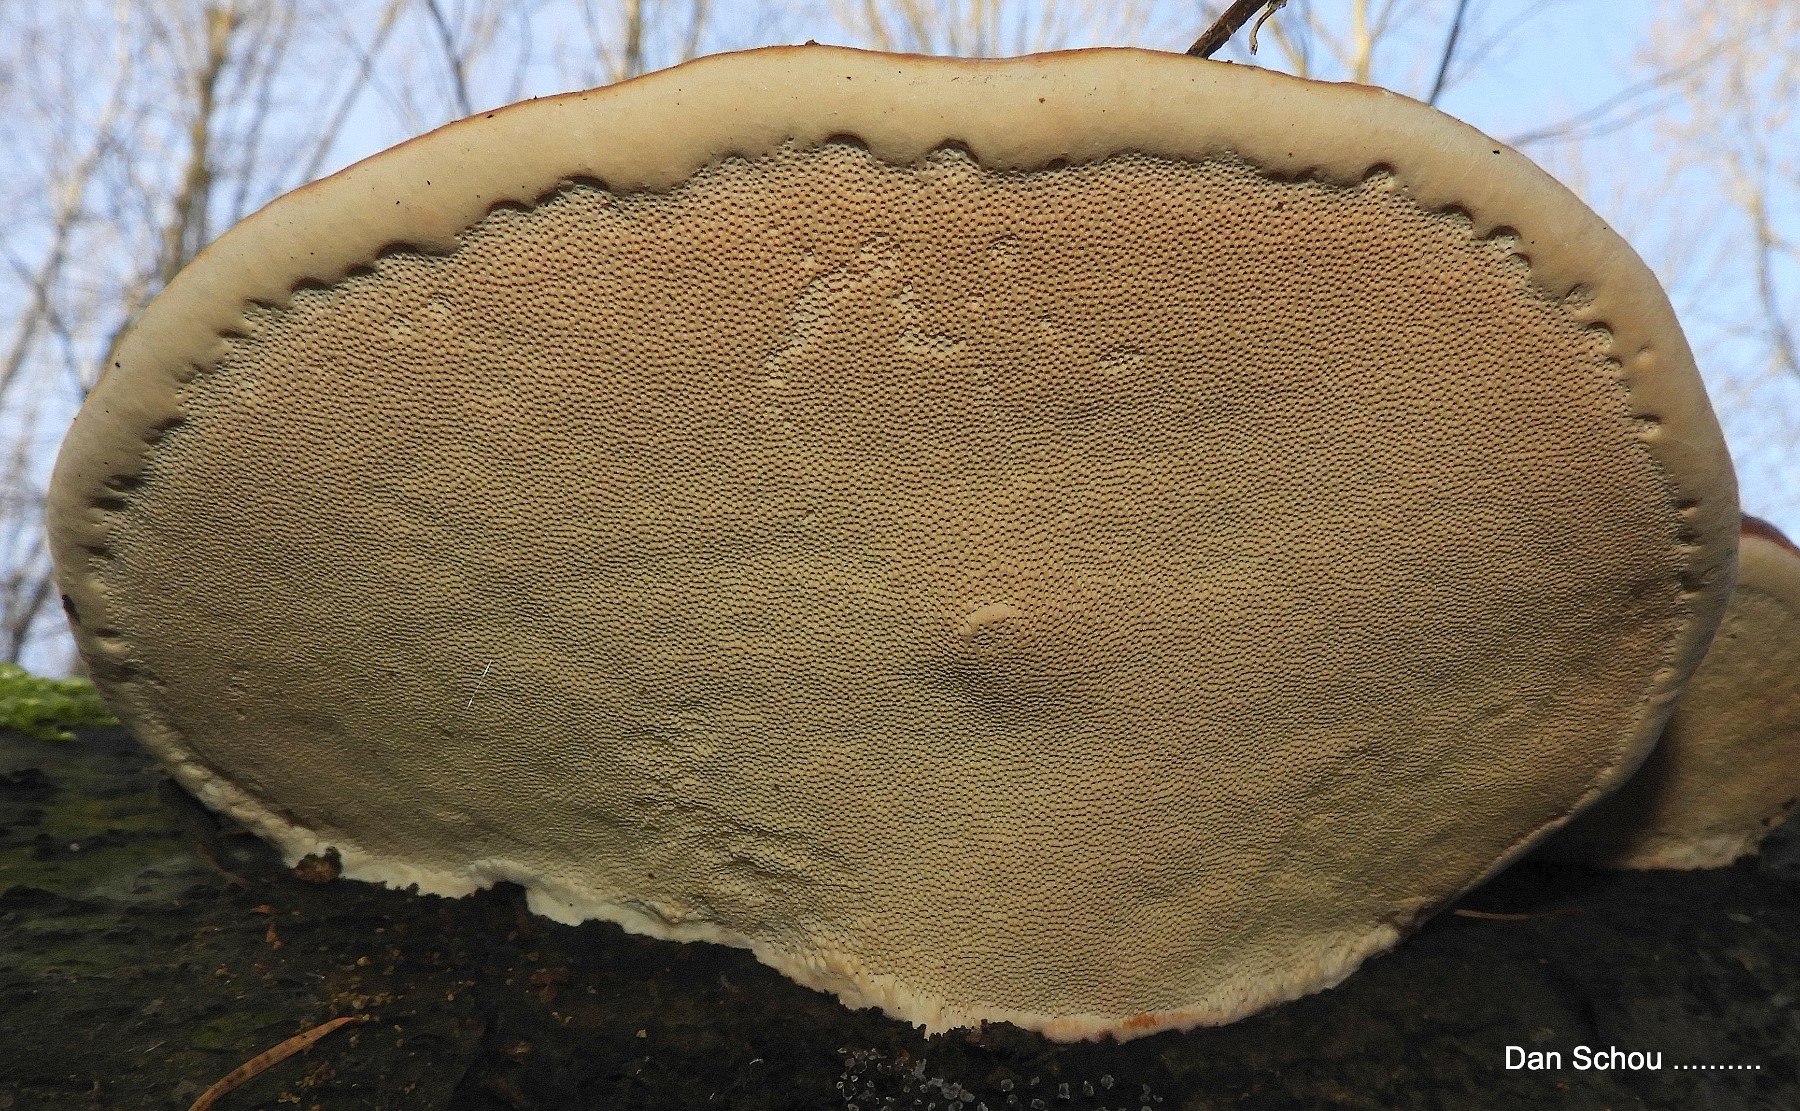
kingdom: Fungi
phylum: Basidiomycota
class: Agaricomycetes
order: Polyporales
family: Fomitopsidaceae
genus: Fomitopsis
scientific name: Fomitopsis pinicola
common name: randbæltet hovporesvamp
